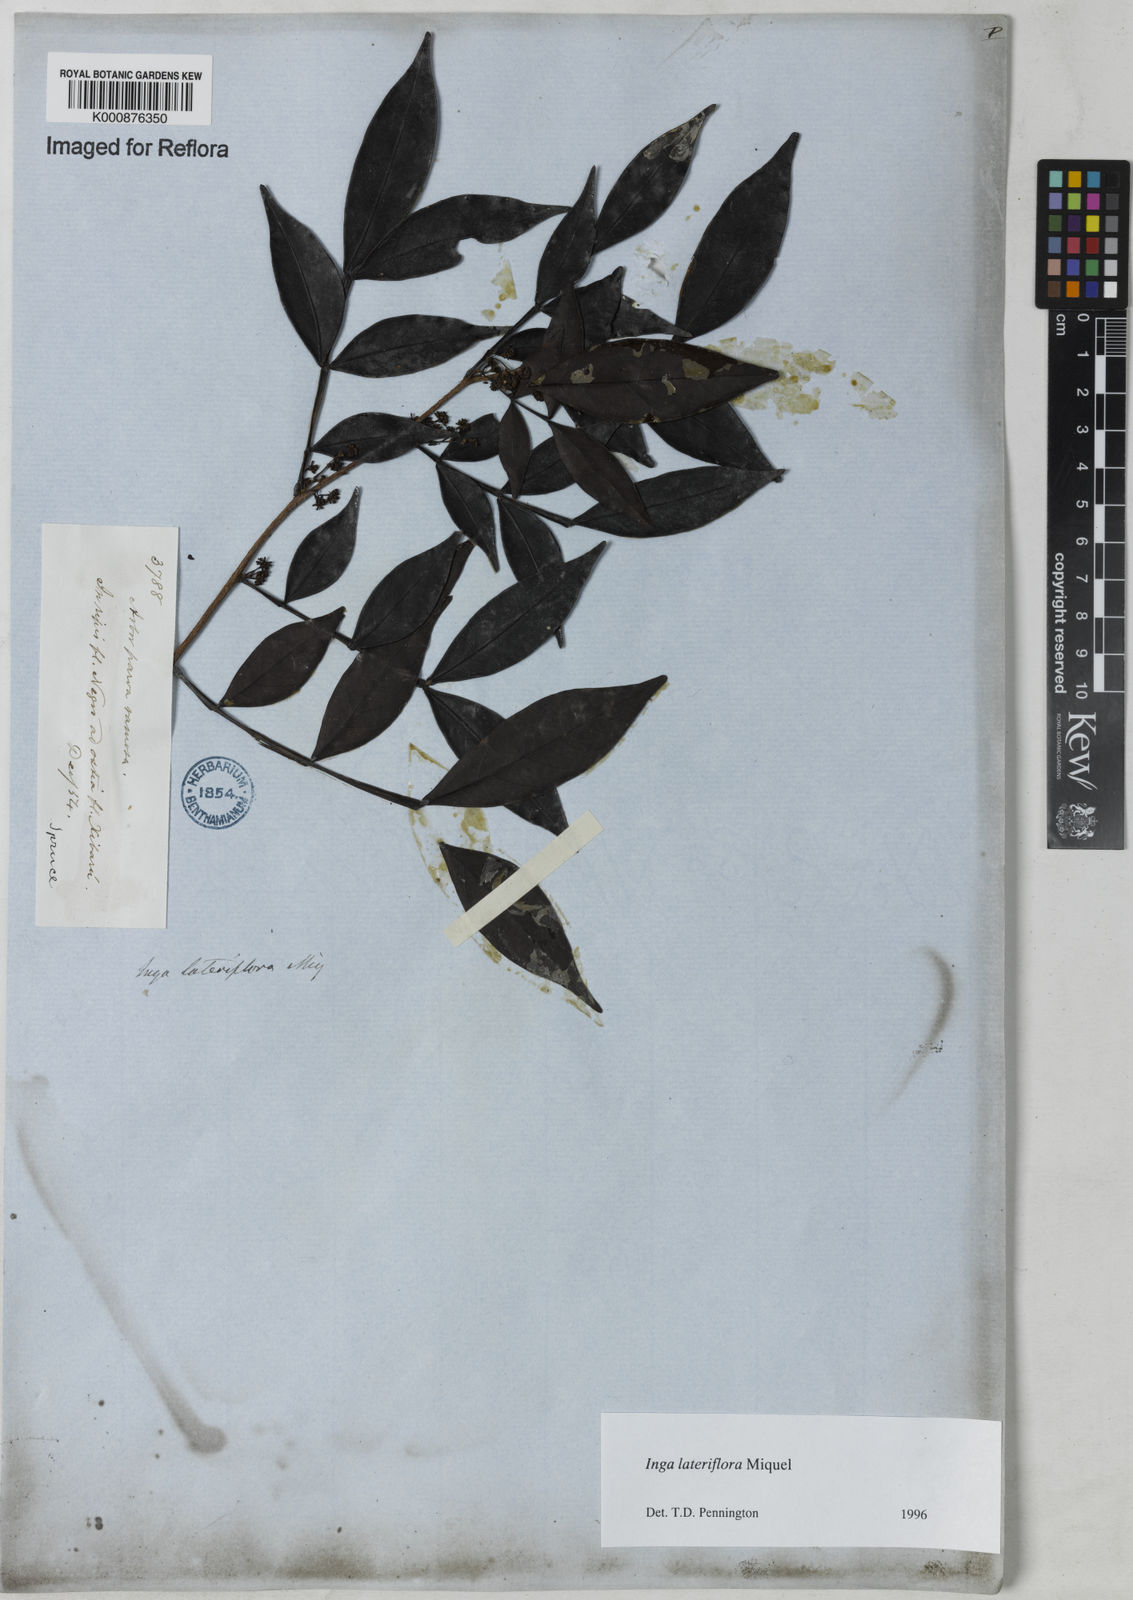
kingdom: Plantae
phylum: Tracheophyta
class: Magnoliopsida
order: Fabales
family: Fabaceae
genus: Inga
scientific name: Inga lateriflora
